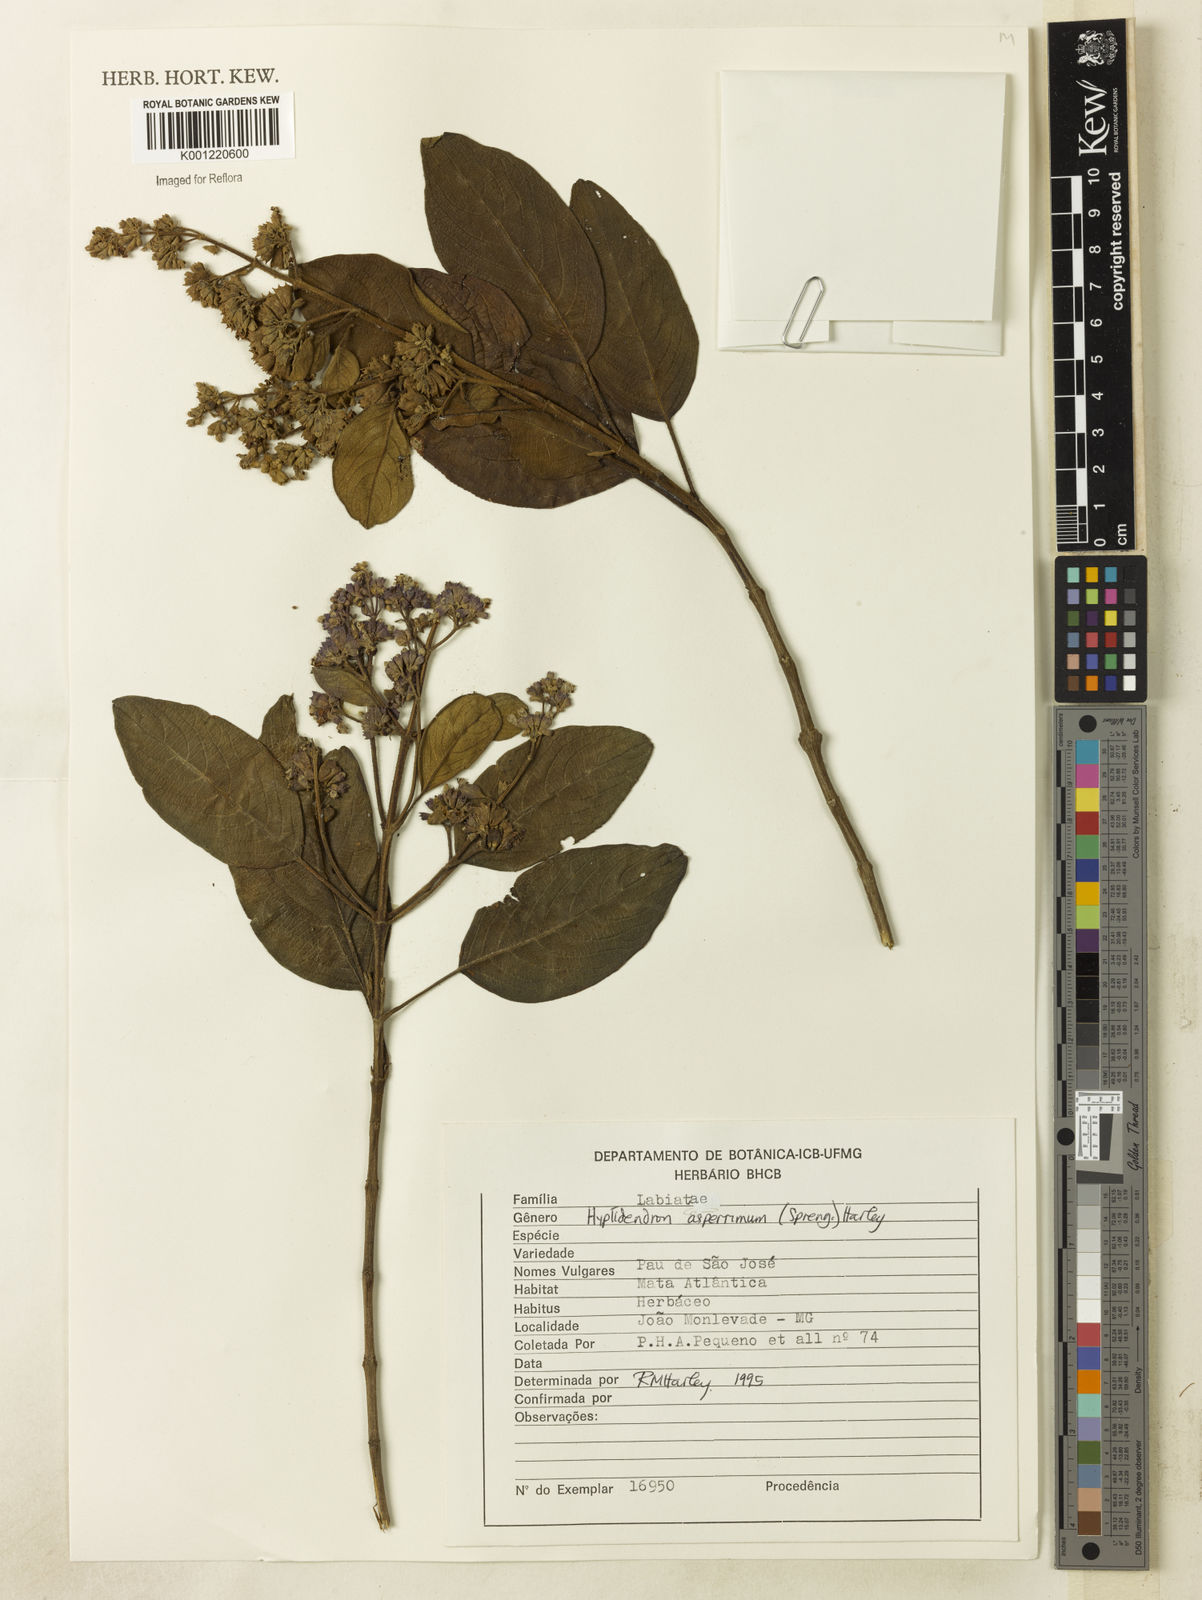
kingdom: Plantae
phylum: Tracheophyta
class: Magnoliopsida
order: Lamiales
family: Lamiaceae
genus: Hyptidendron
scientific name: Hyptidendron asperrimum
